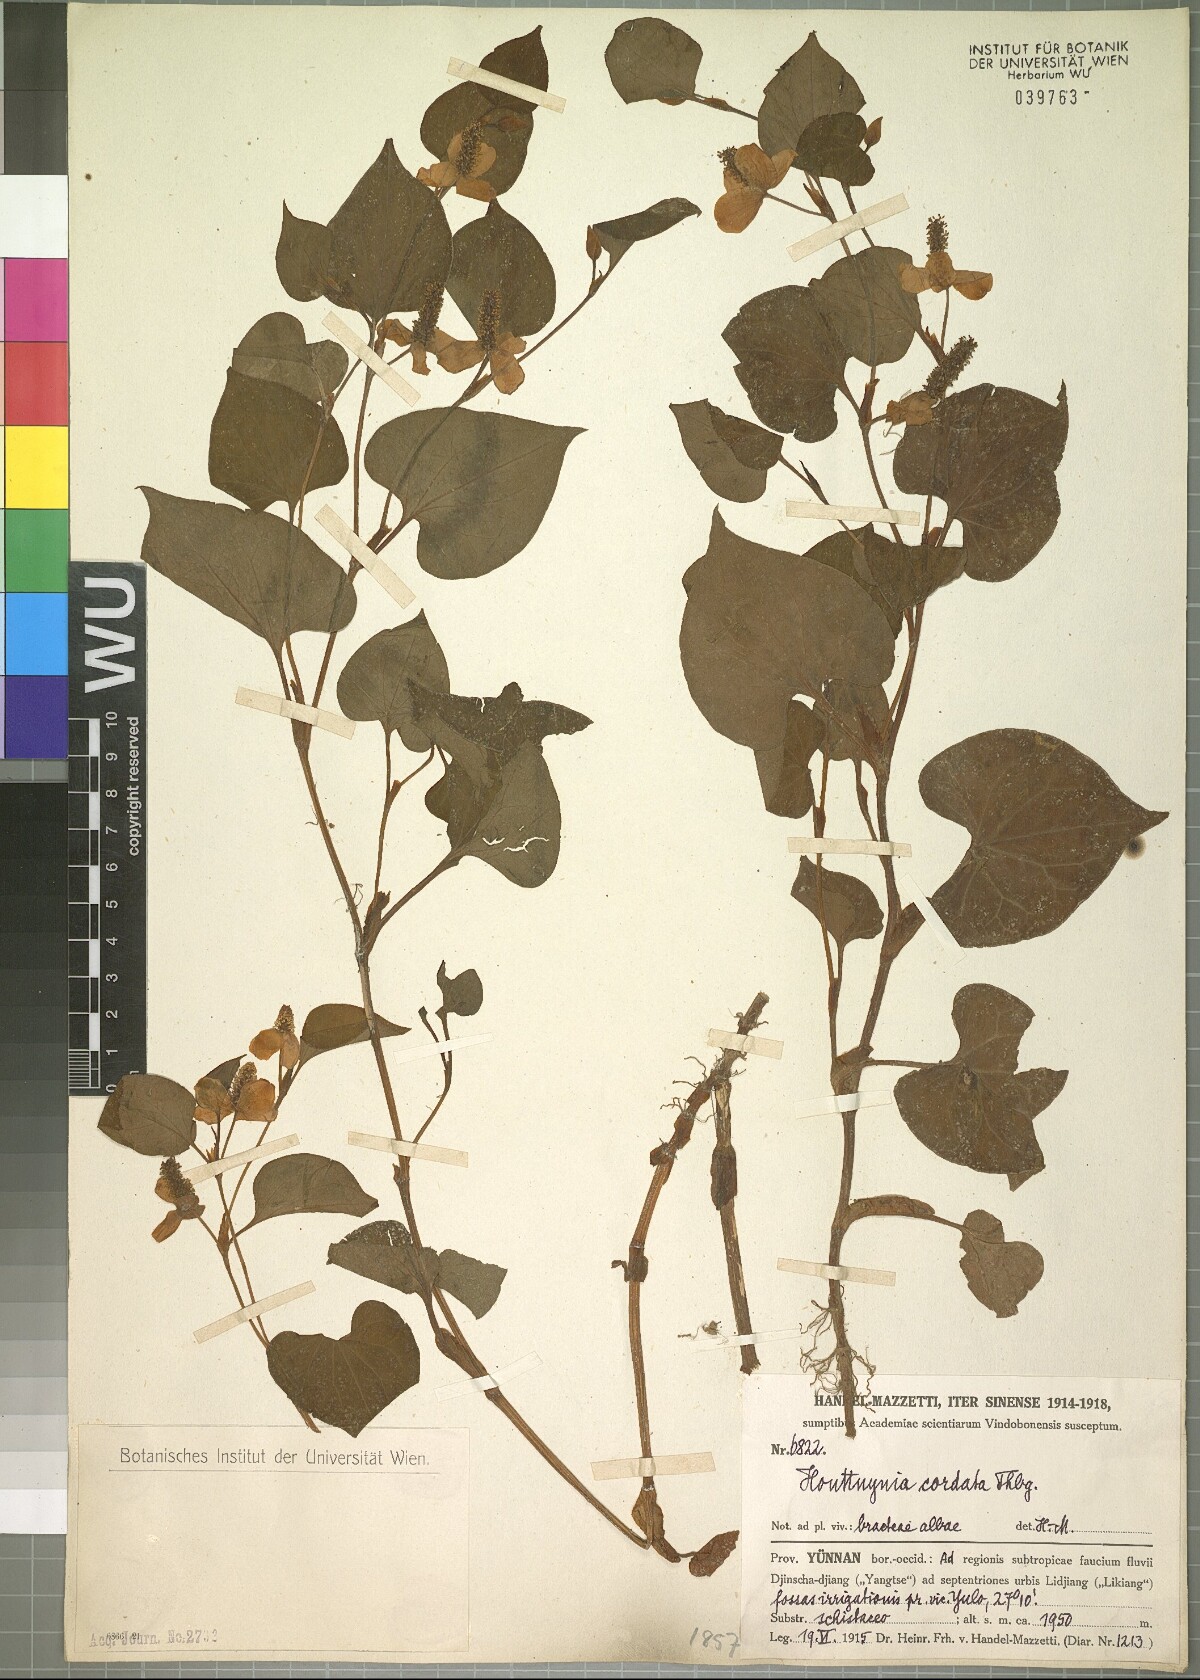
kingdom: Plantae
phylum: Tracheophyta
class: Magnoliopsida
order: Piperales
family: Saururaceae
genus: Houttuynia
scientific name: Houttuynia cordata
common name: Chameleon
